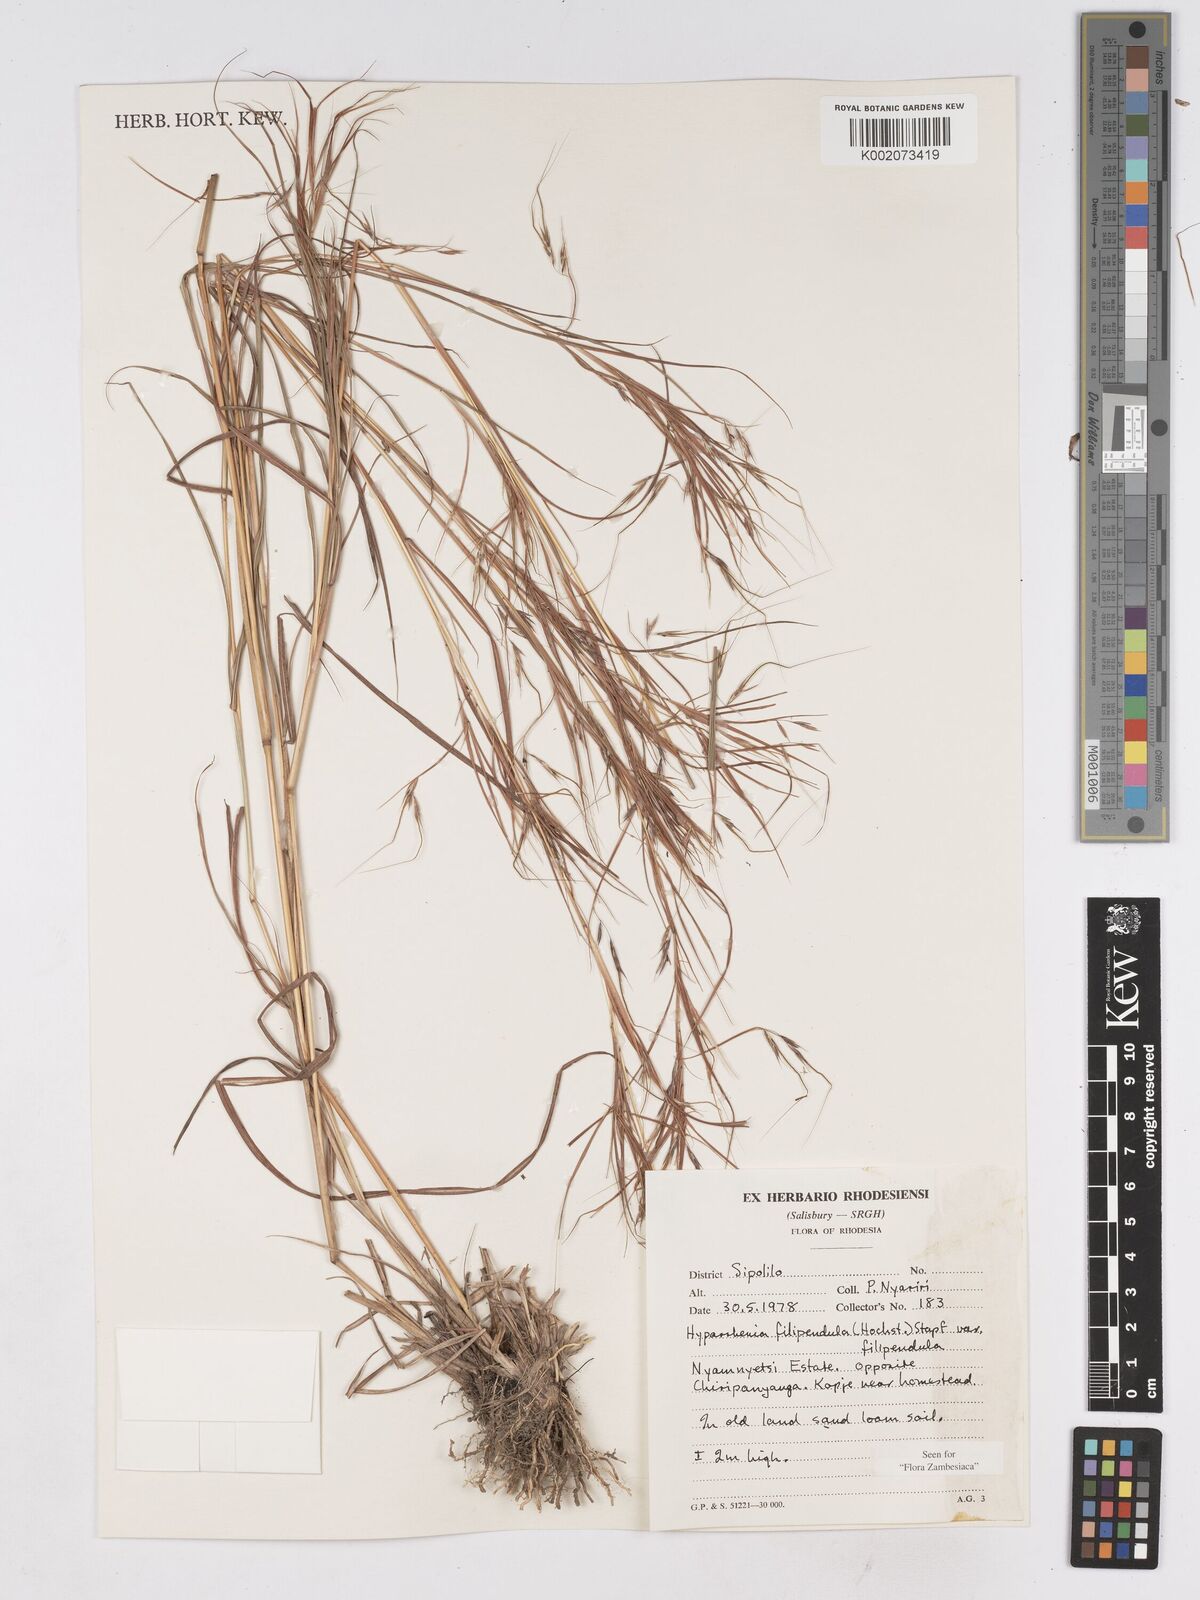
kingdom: Plantae
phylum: Tracheophyta
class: Liliopsida
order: Poales
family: Poaceae
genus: Hyparrhenia
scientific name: Hyparrhenia filipendula
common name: Tambookie grass
